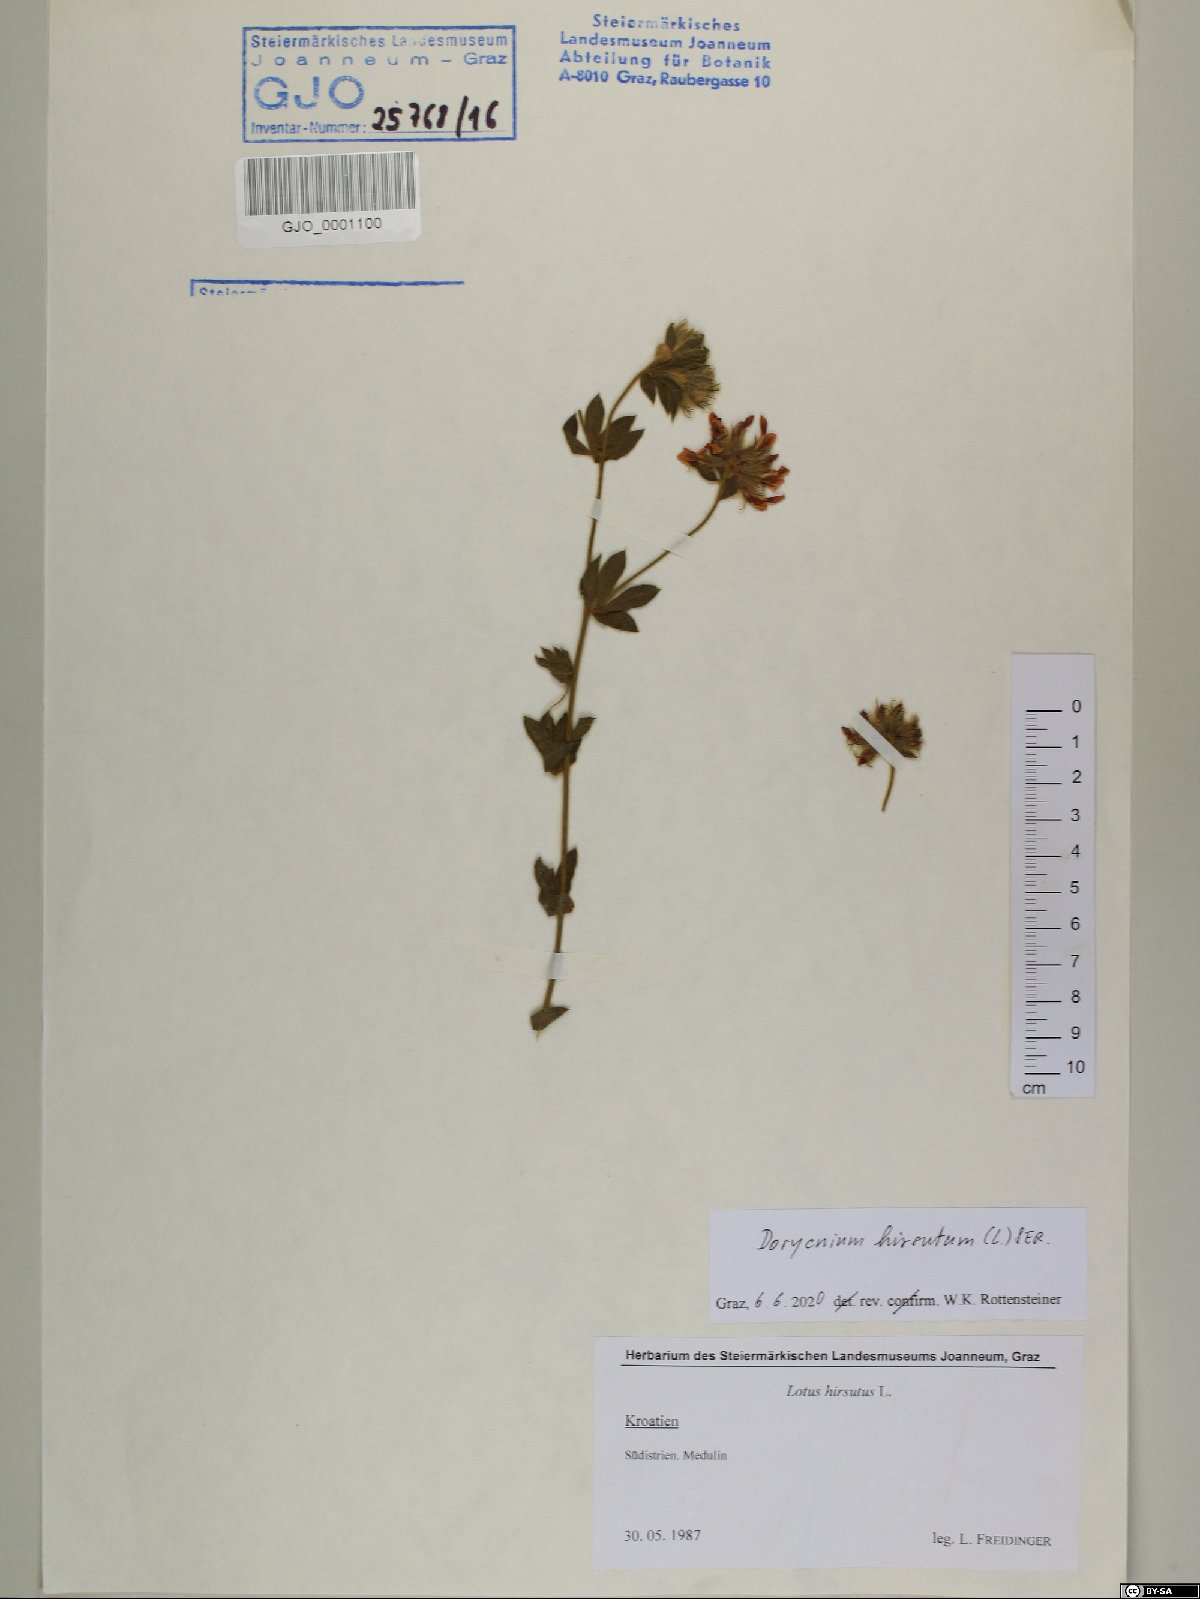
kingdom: Plantae
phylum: Tracheophyta
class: Magnoliopsida
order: Fabales
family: Fabaceae
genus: Lotus
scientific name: Lotus hirsutus
